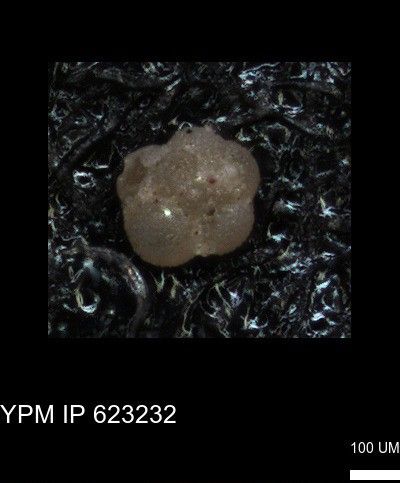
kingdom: Chromista
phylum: Foraminifera
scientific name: Foraminifera
